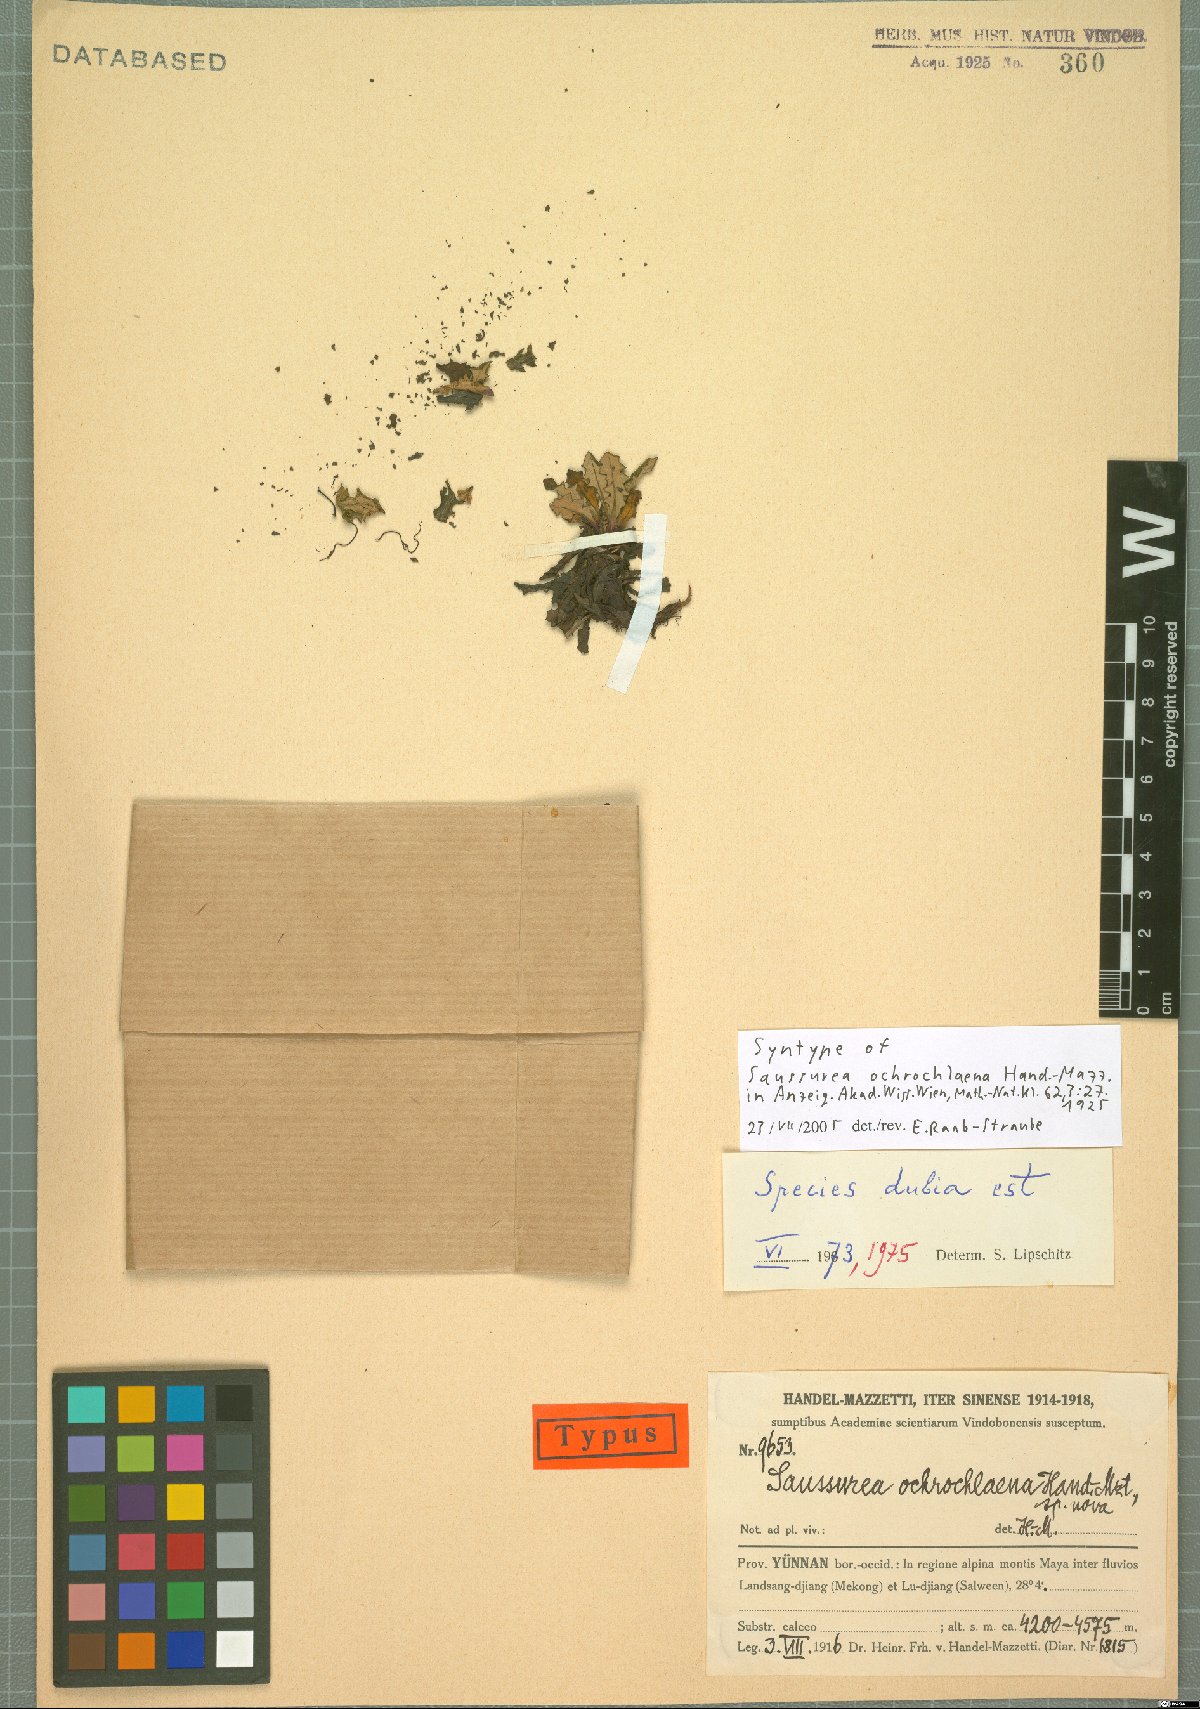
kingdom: Plantae
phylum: Tracheophyta
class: Magnoliopsida
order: Asterales
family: Asteraceae
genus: Saussurea
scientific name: Saussurea salwinensis
